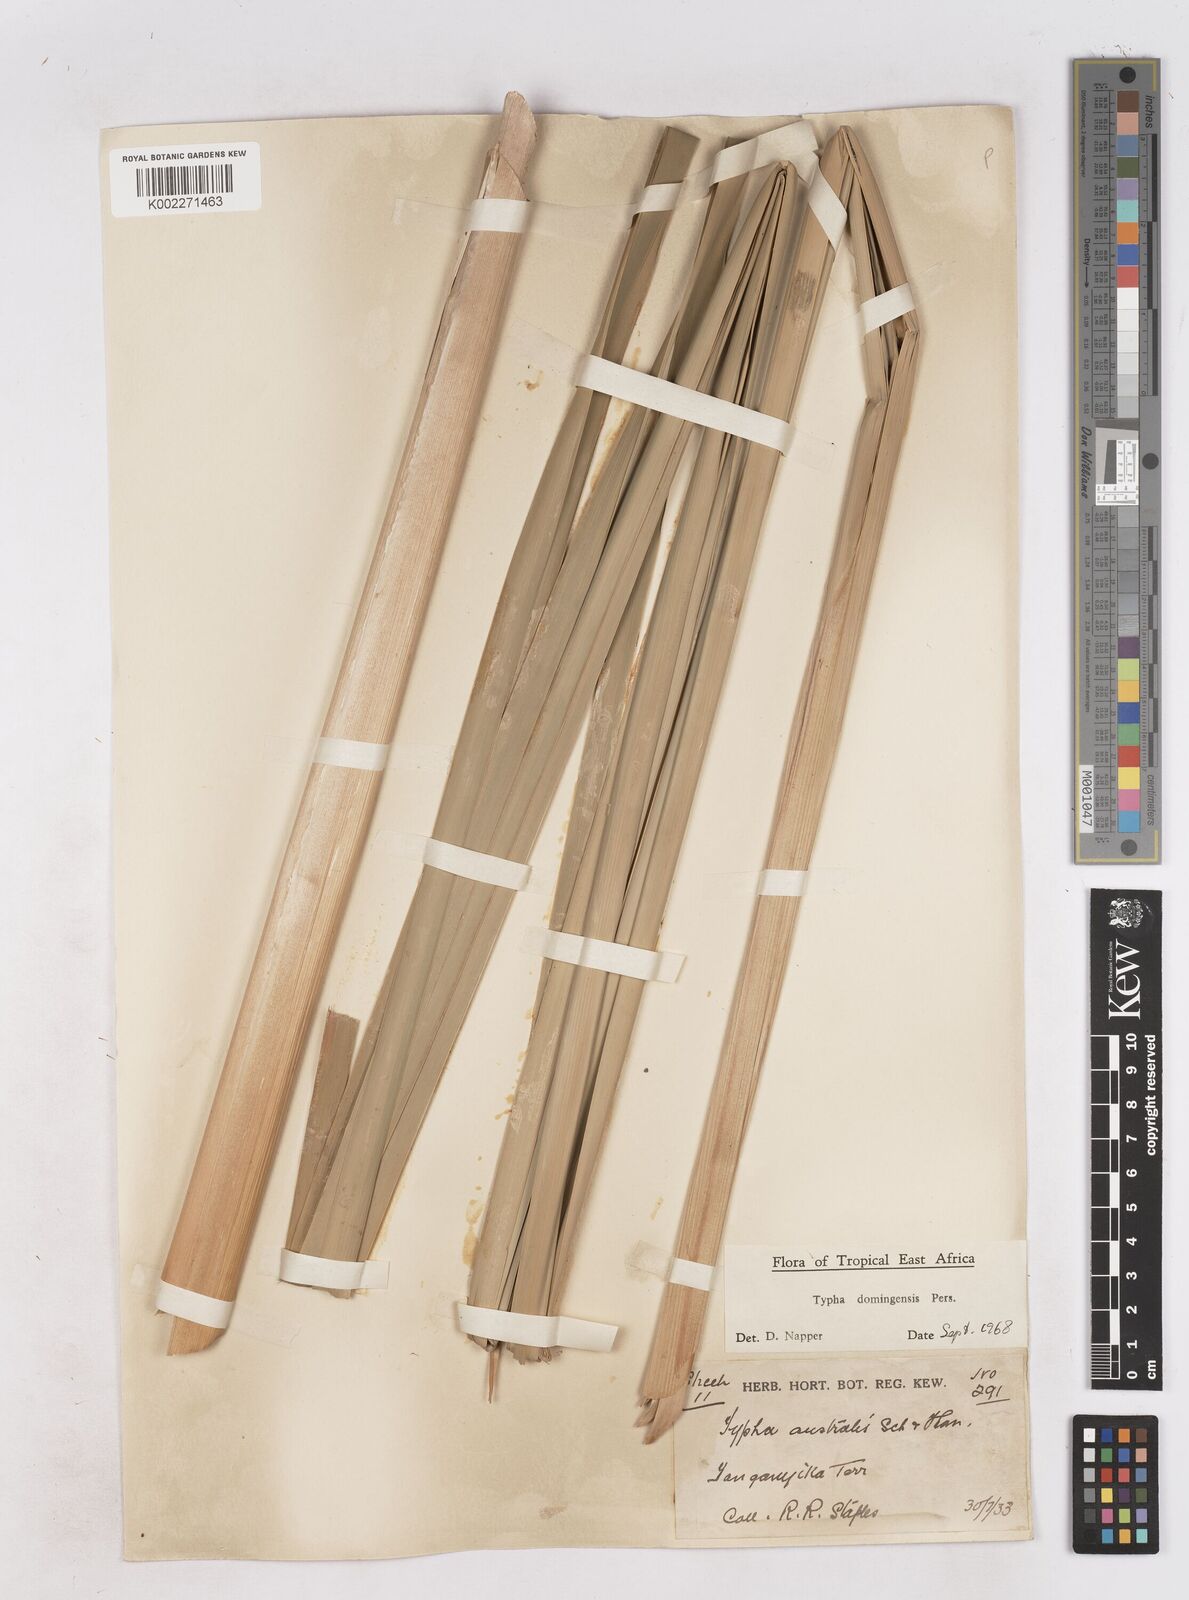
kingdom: Plantae
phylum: Tracheophyta
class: Liliopsida
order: Poales
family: Typhaceae
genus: Typha
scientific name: Typha domingensis
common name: Southern cattail
